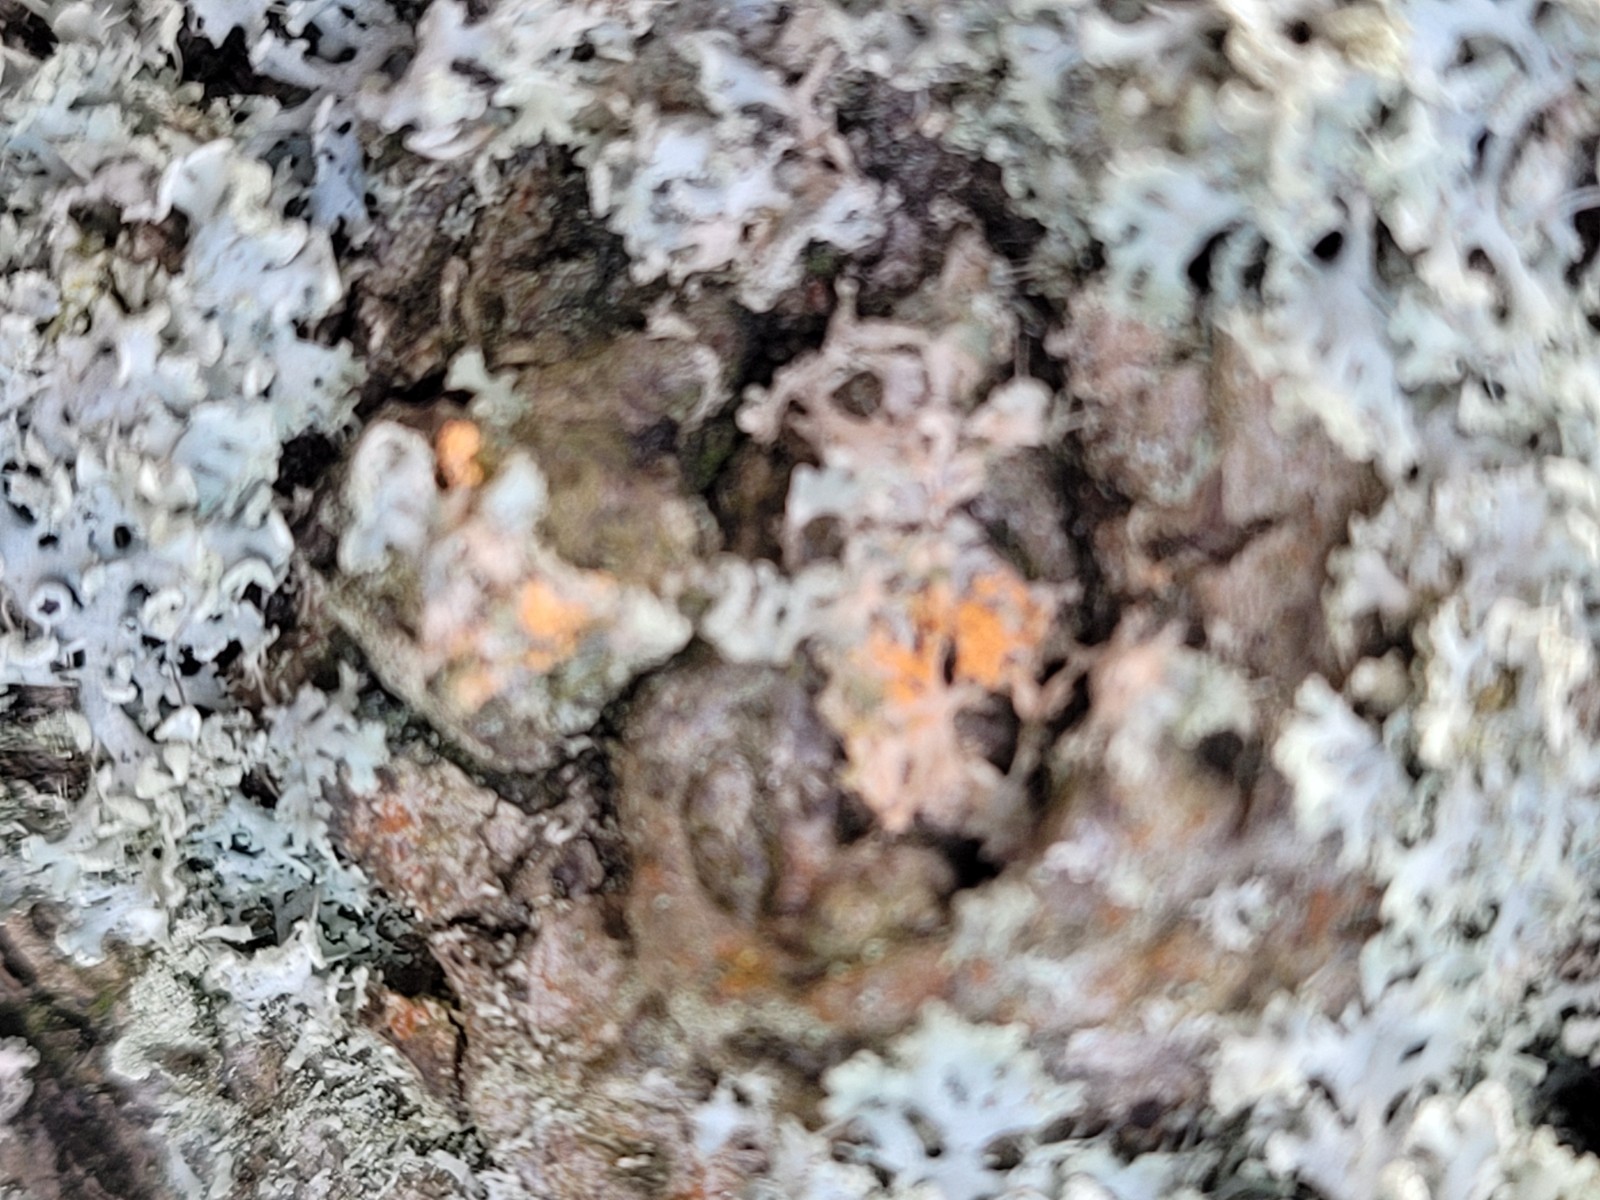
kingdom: Fungi
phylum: Basidiomycota
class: Agaricomycetes
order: Corticiales
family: Corticiaceae
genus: Erythricium
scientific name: Erythricium aurantiacum
